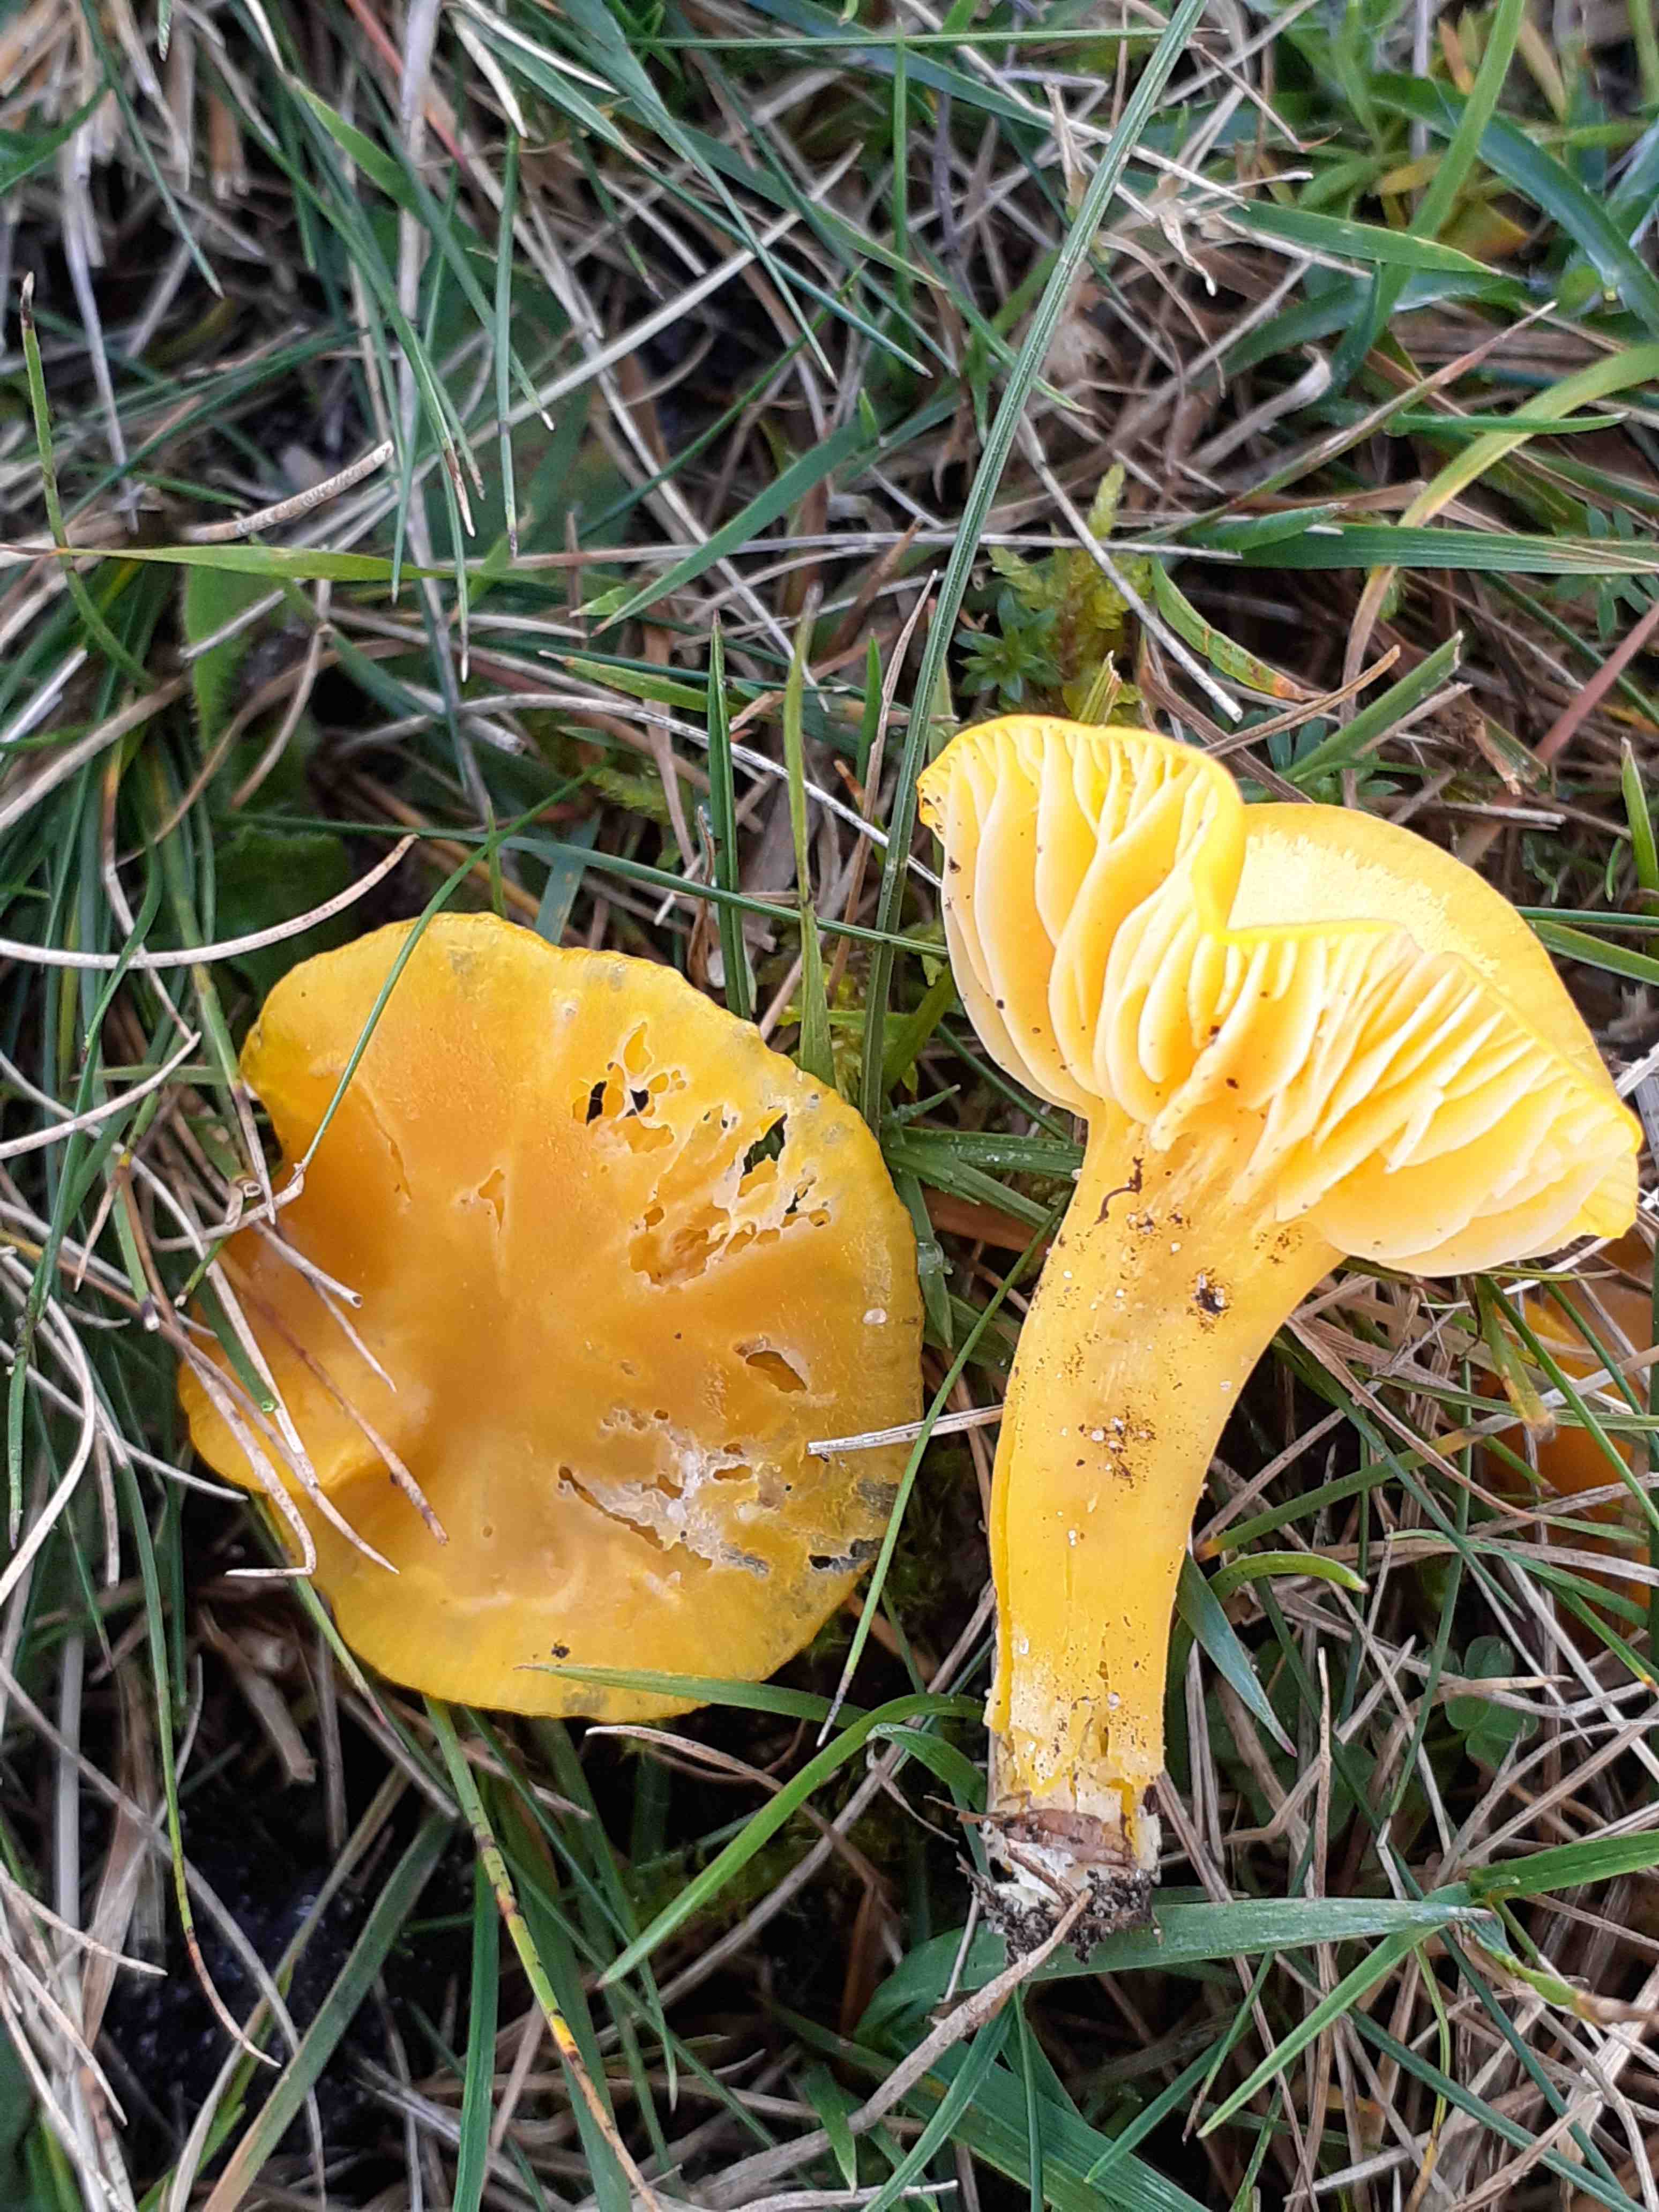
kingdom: Fungi
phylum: Basidiomycota
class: Agaricomycetes
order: Agaricales
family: Hygrophoraceae
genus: Hygrocybe
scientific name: Hygrocybe chlorophana
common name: gul vokshat
